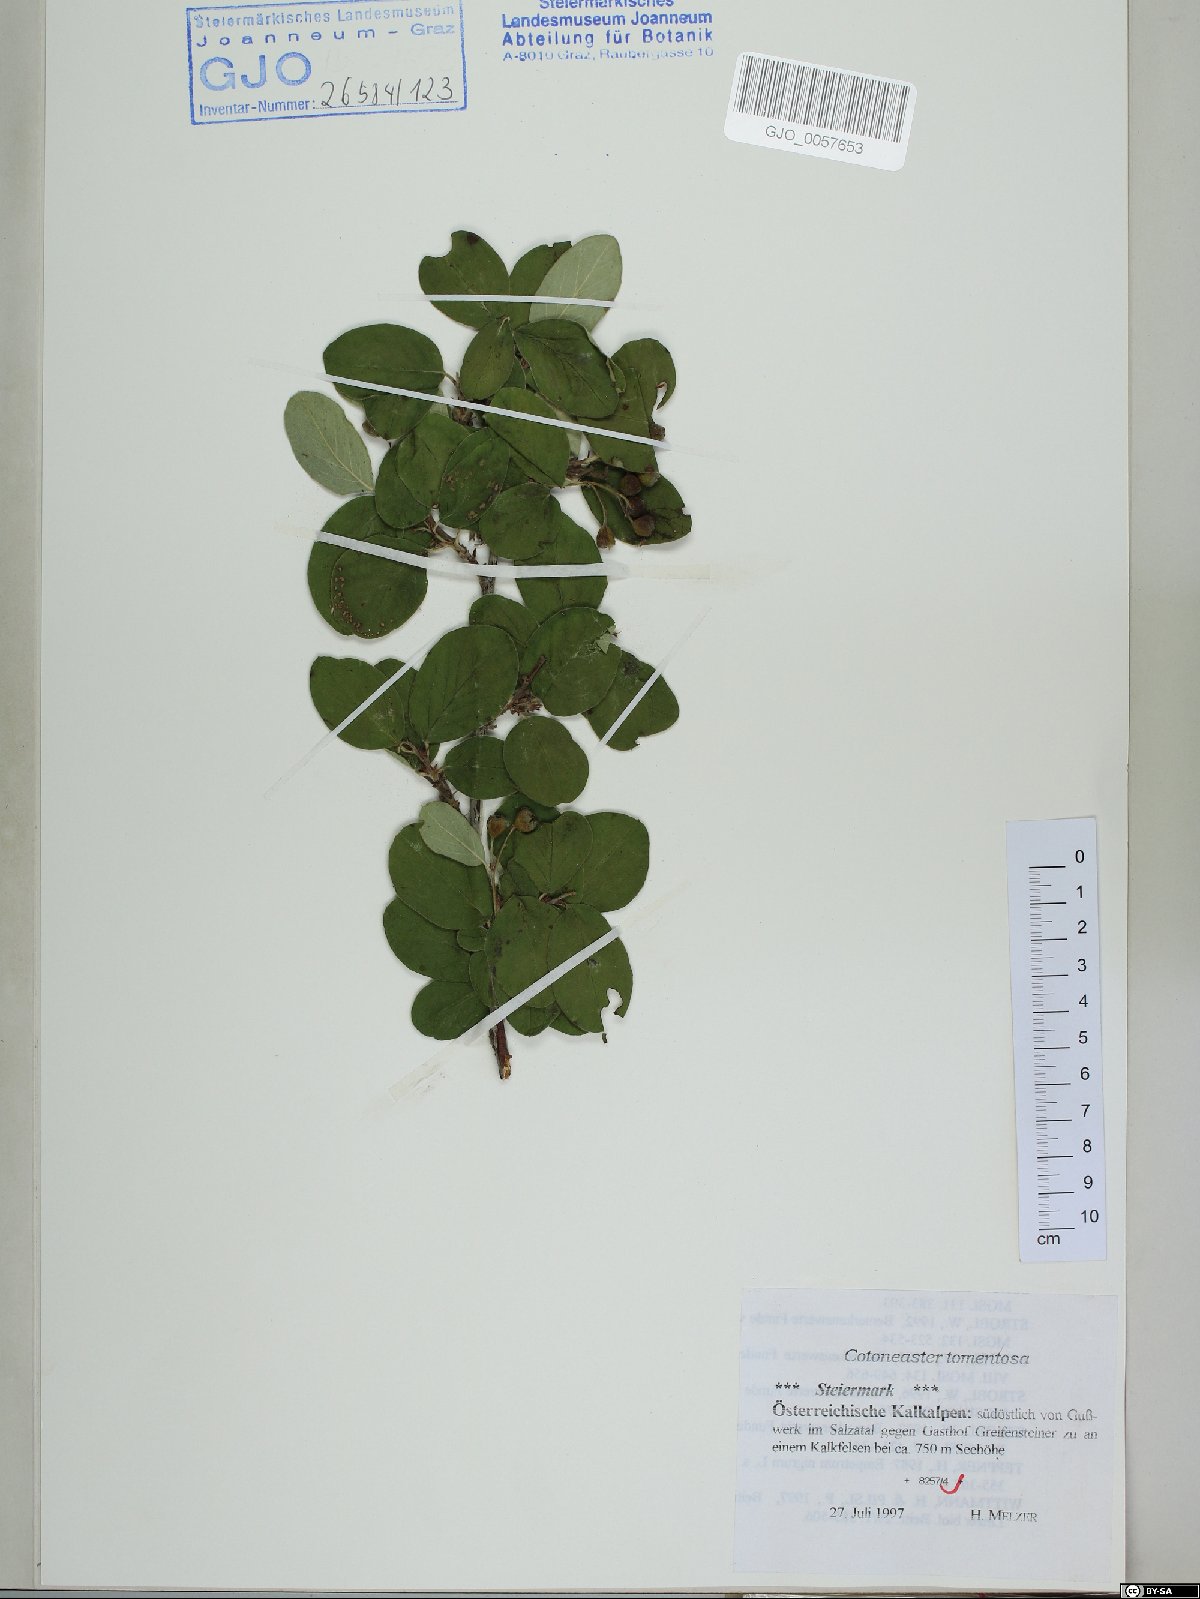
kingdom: Plantae
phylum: Tracheophyta
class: Magnoliopsida
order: Rosales
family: Rosaceae
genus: Cotoneaster
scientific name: Cotoneaster tomentosus
